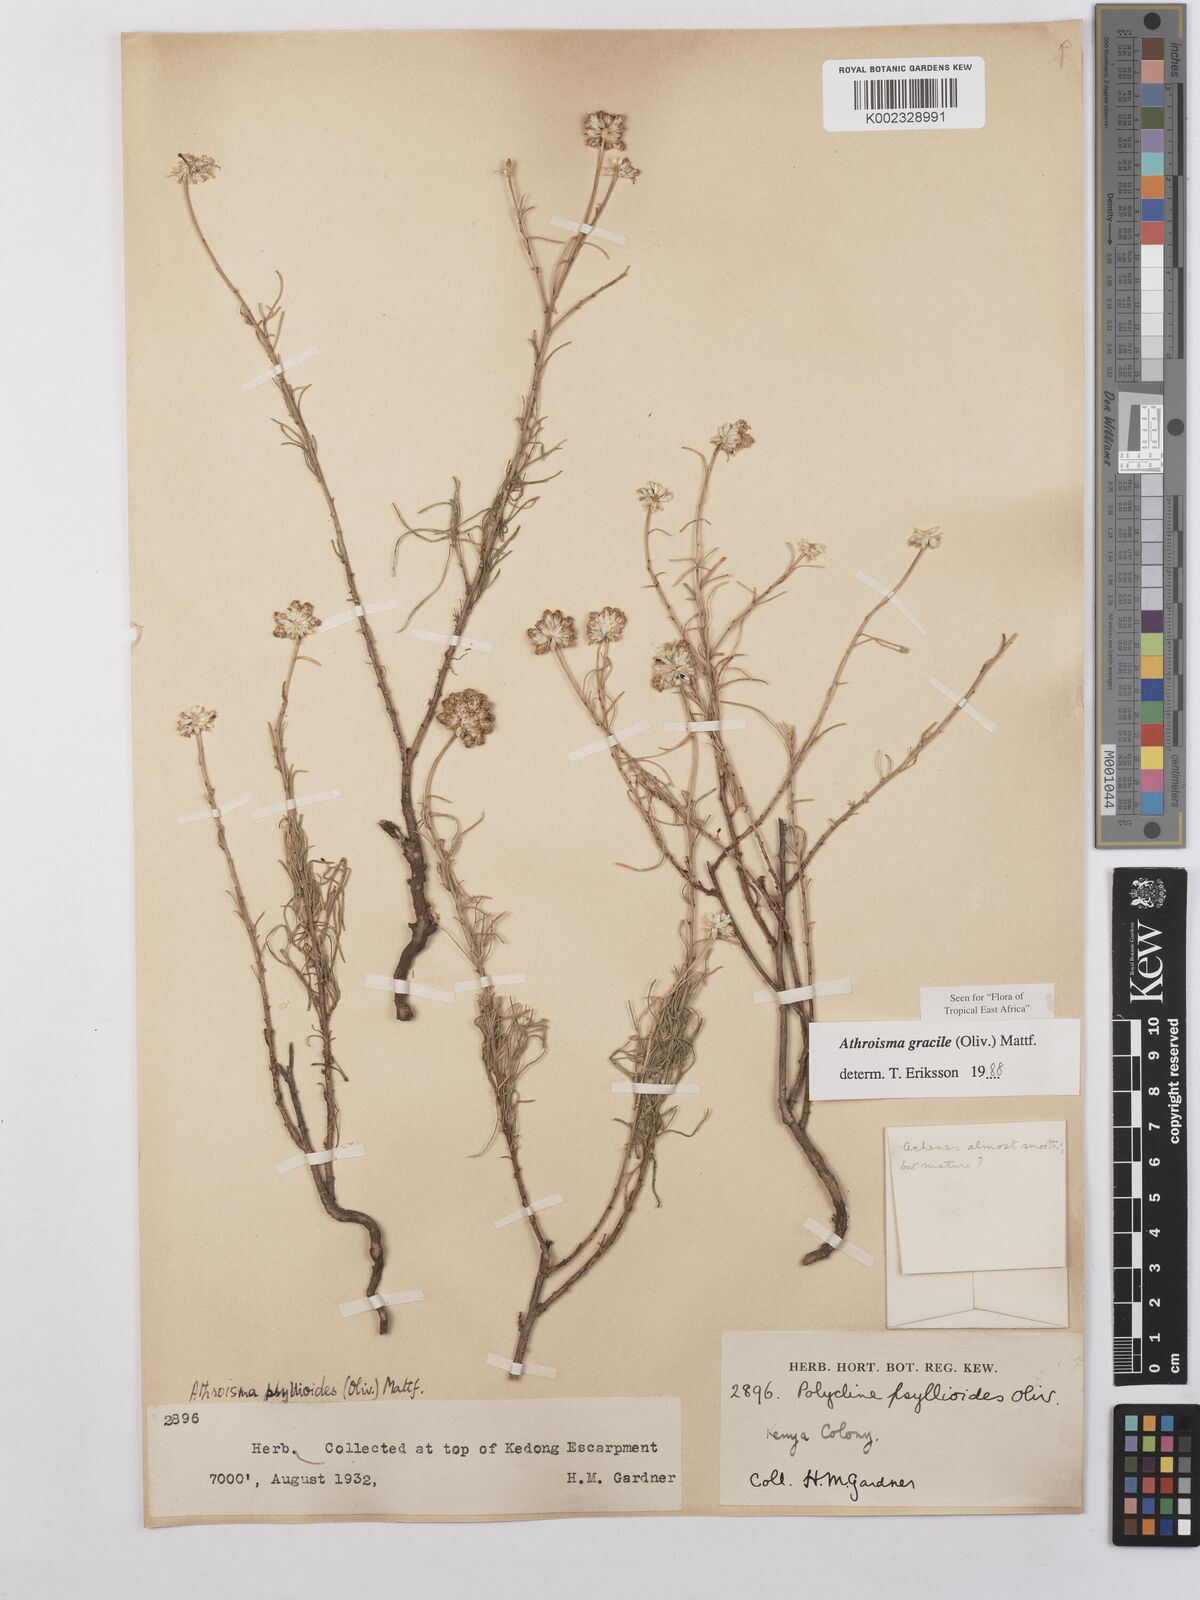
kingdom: Plantae
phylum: Tracheophyta
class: Magnoliopsida
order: Asterales
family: Asteraceae
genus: Athroisma
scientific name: Athroisma gracile
